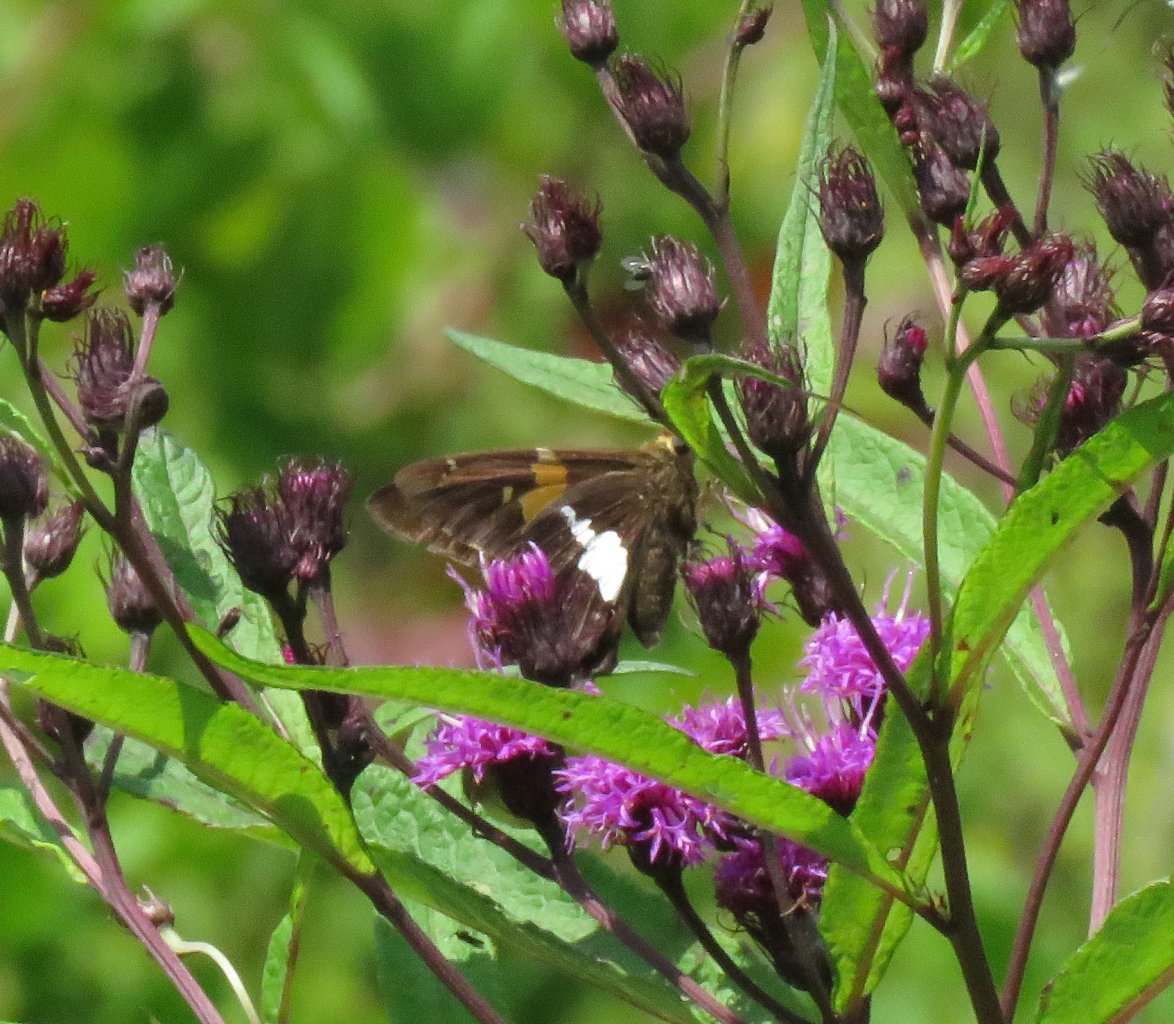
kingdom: Animalia
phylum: Arthropoda
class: Insecta
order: Lepidoptera
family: Hesperiidae
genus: Epargyreus
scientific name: Epargyreus clarus
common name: Silver-spotted Skipper
